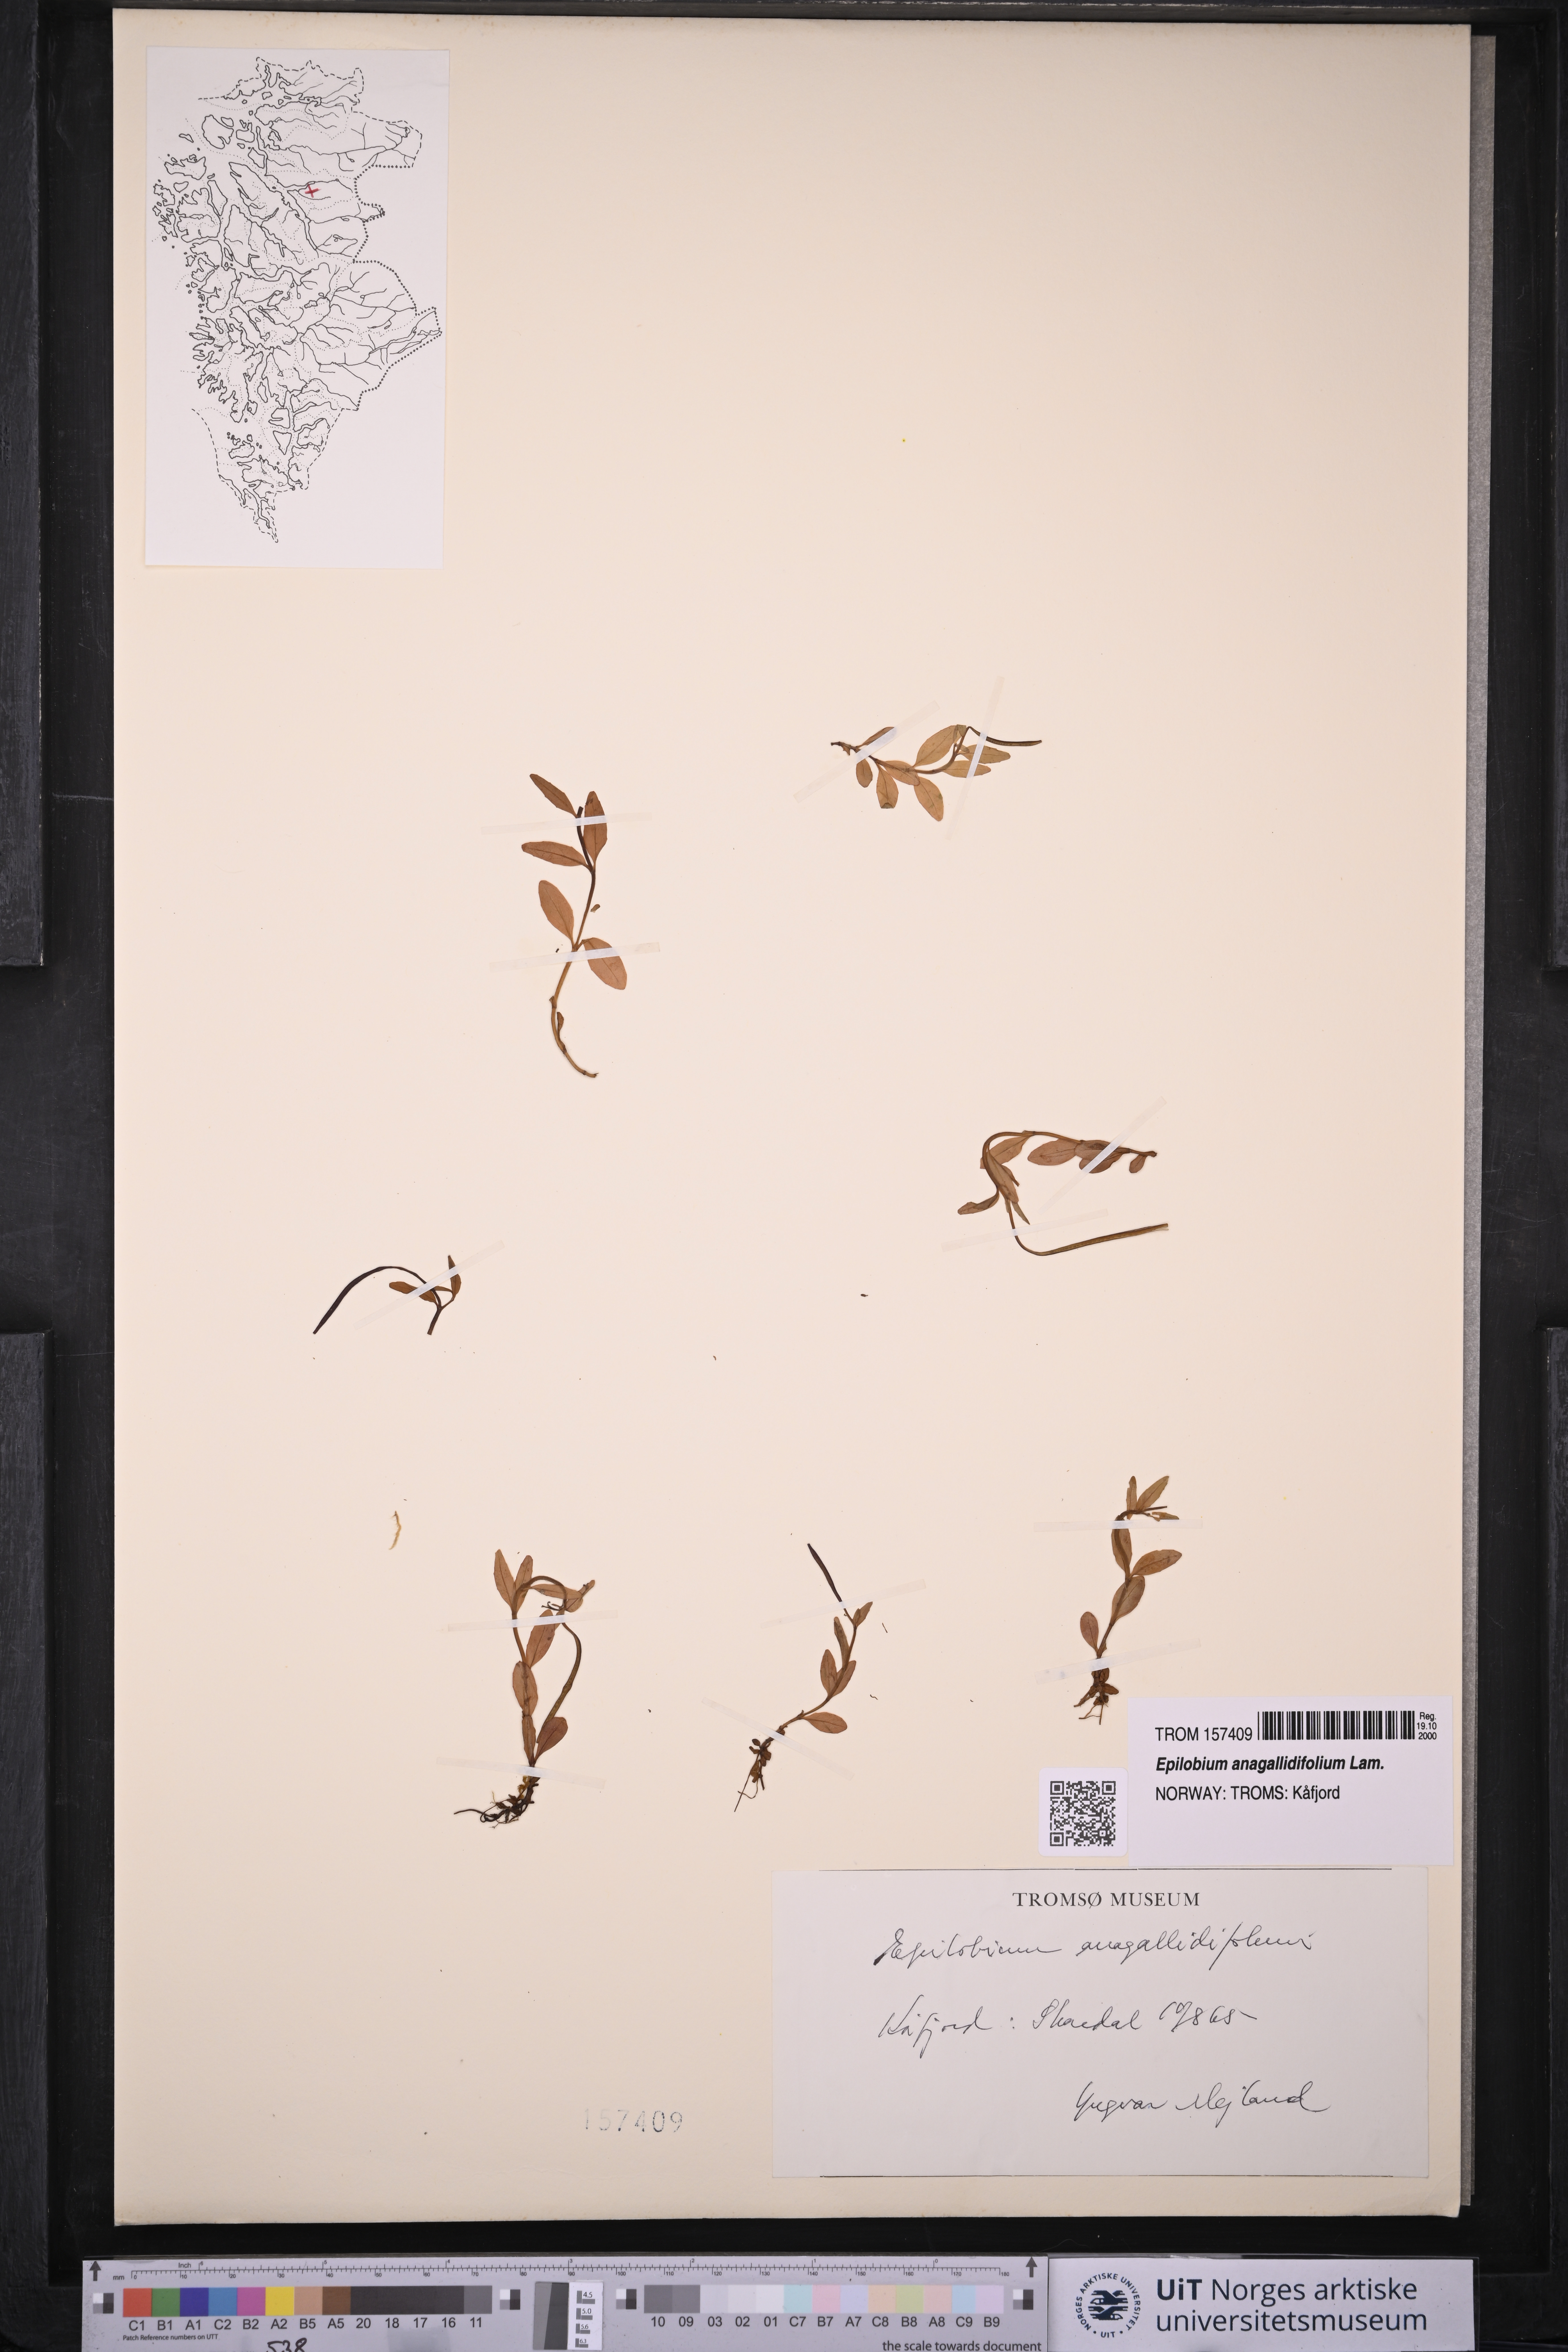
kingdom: Plantae
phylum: Tracheophyta
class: Magnoliopsida
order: Myrtales
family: Onagraceae
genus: Epilobium
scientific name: Epilobium anagallidifolium
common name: Alpine willowherb
